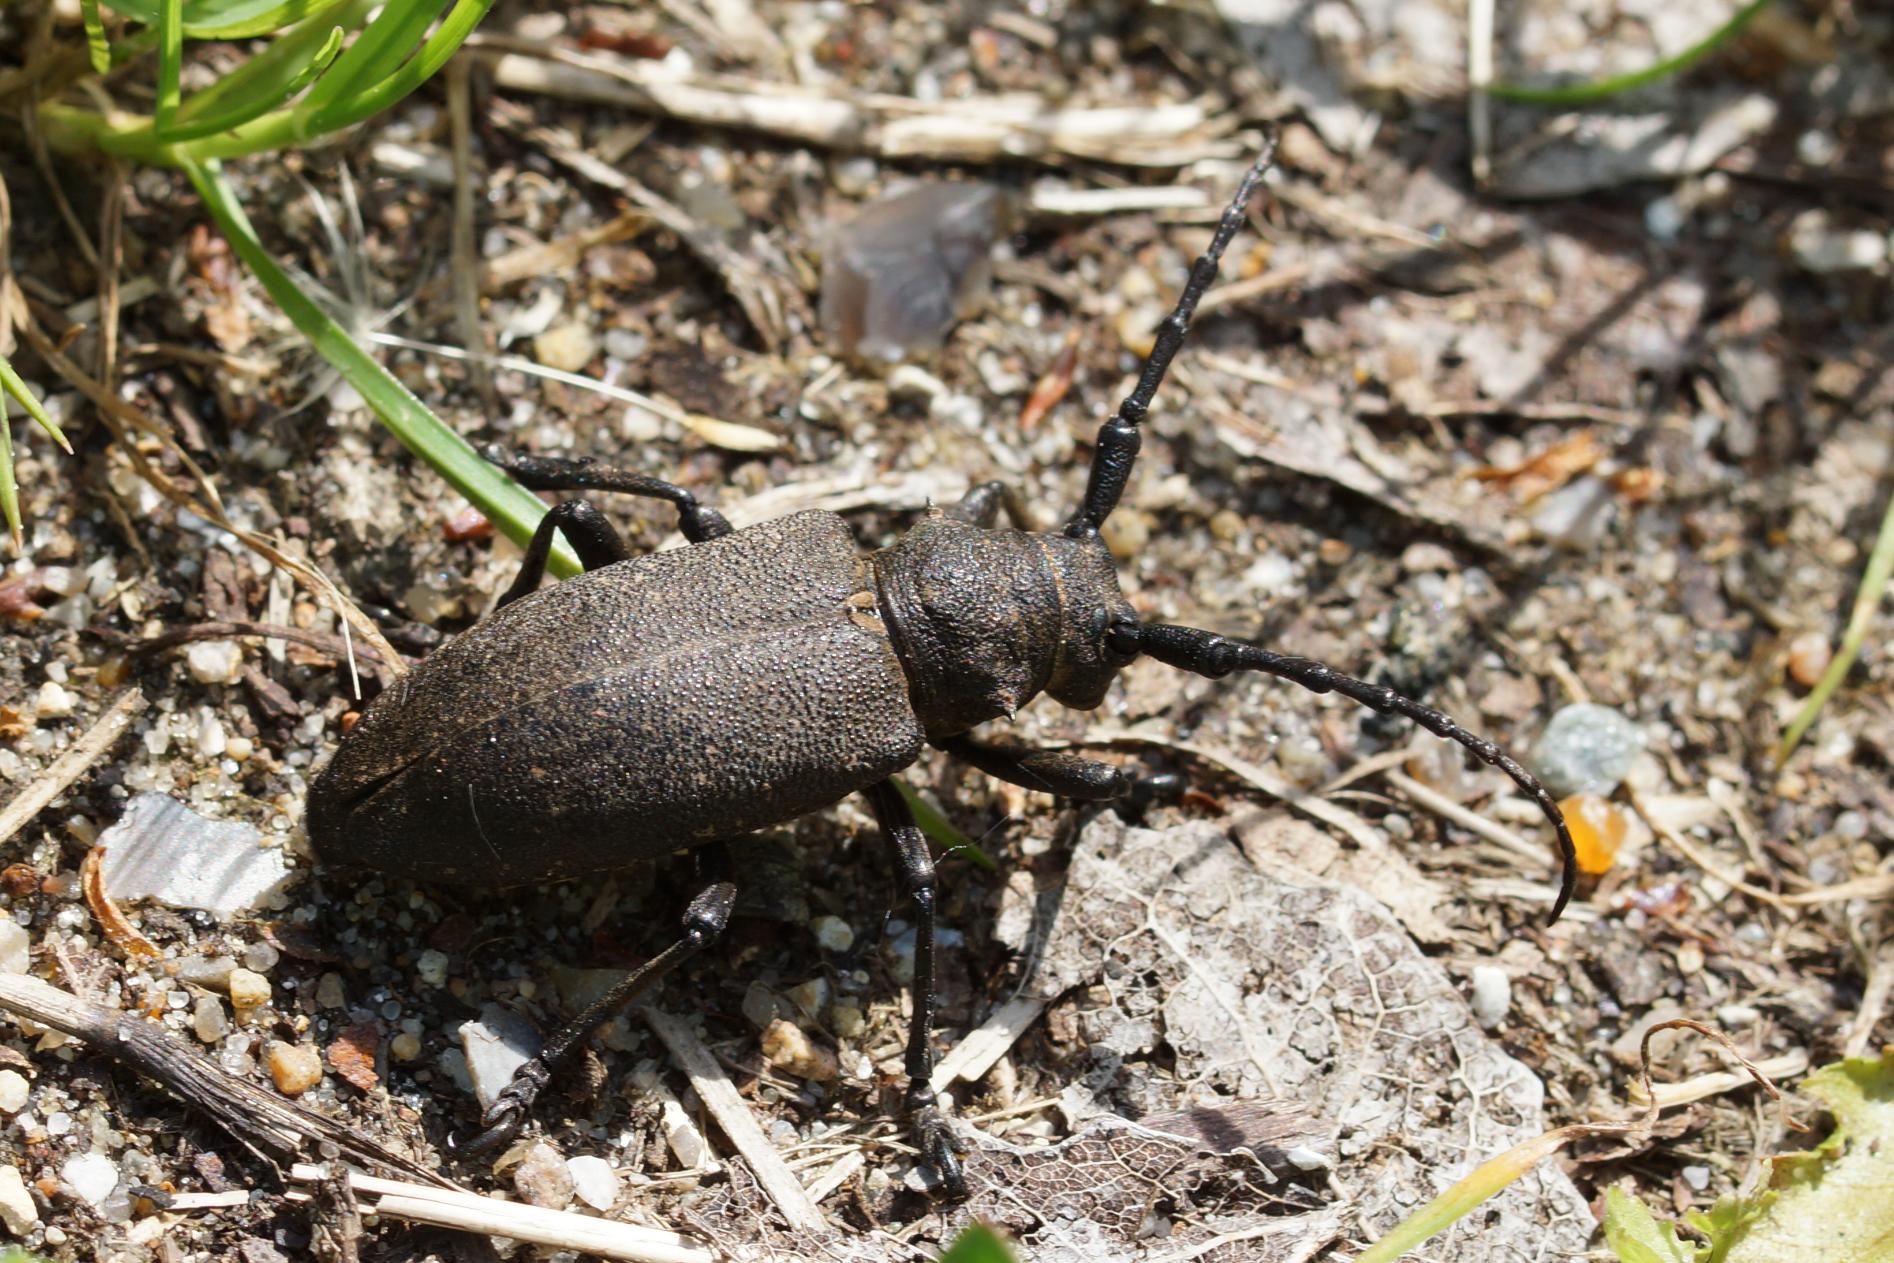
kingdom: Animalia
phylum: Arthropoda
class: Insecta
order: Coleoptera
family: Cerambycidae
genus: Lamia
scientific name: Lamia textor
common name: Væver
